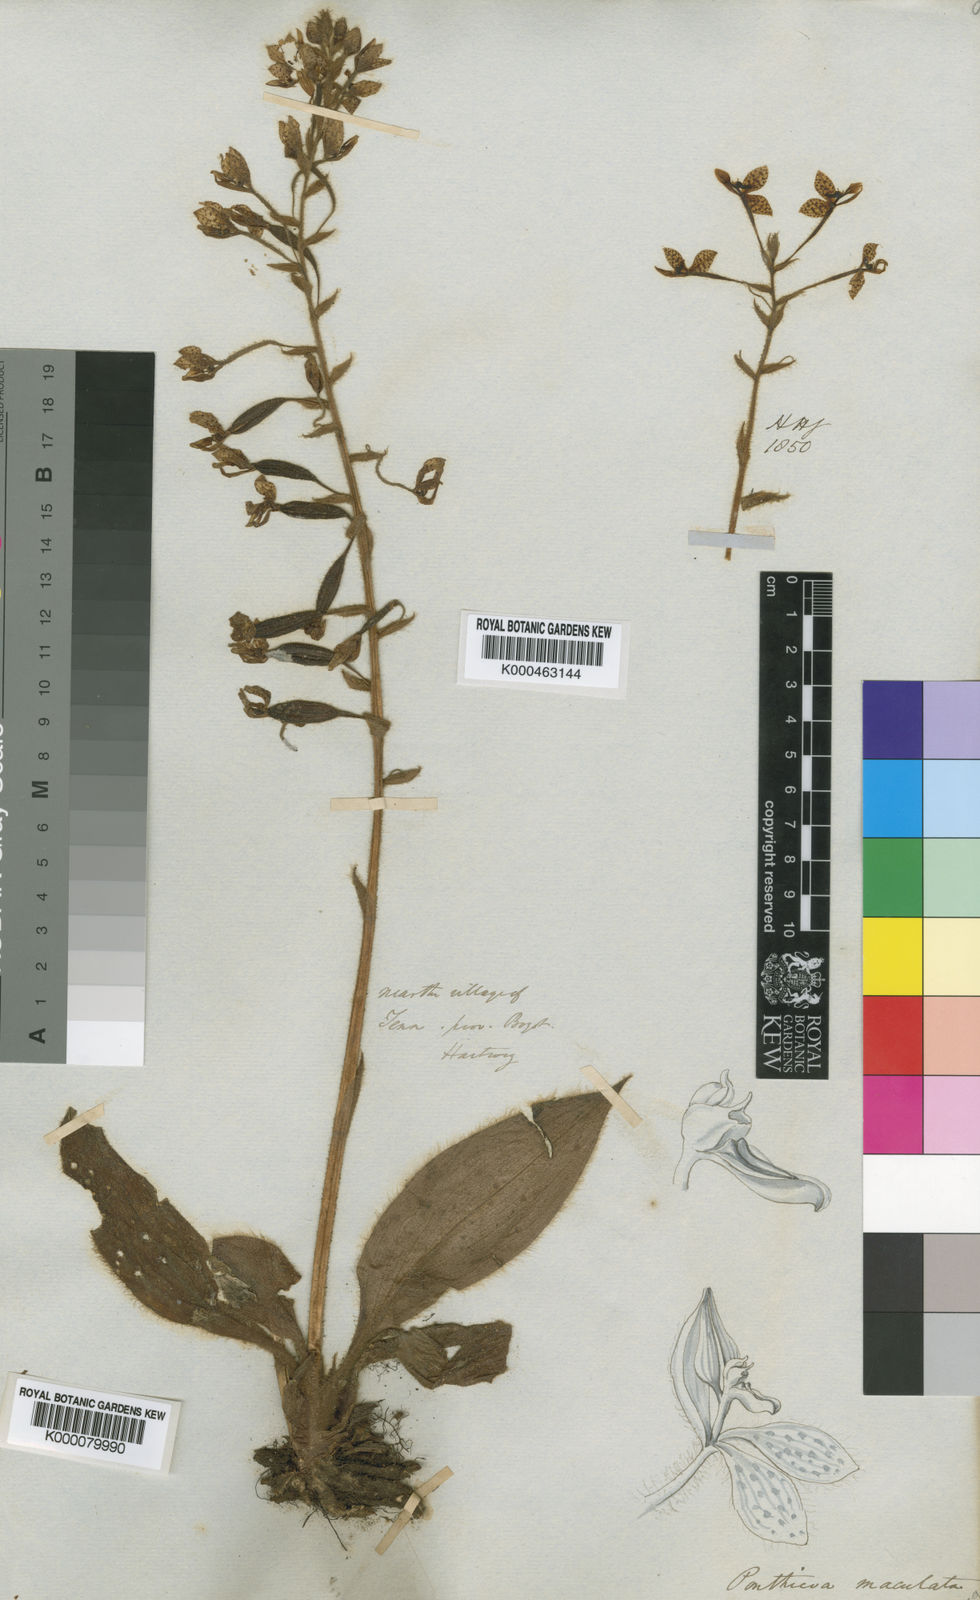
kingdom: Plantae
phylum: Tracheophyta
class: Liliopsida
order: Asparagales
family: Orchidaceae
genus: Ponthieva
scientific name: Ponthieva maculata
